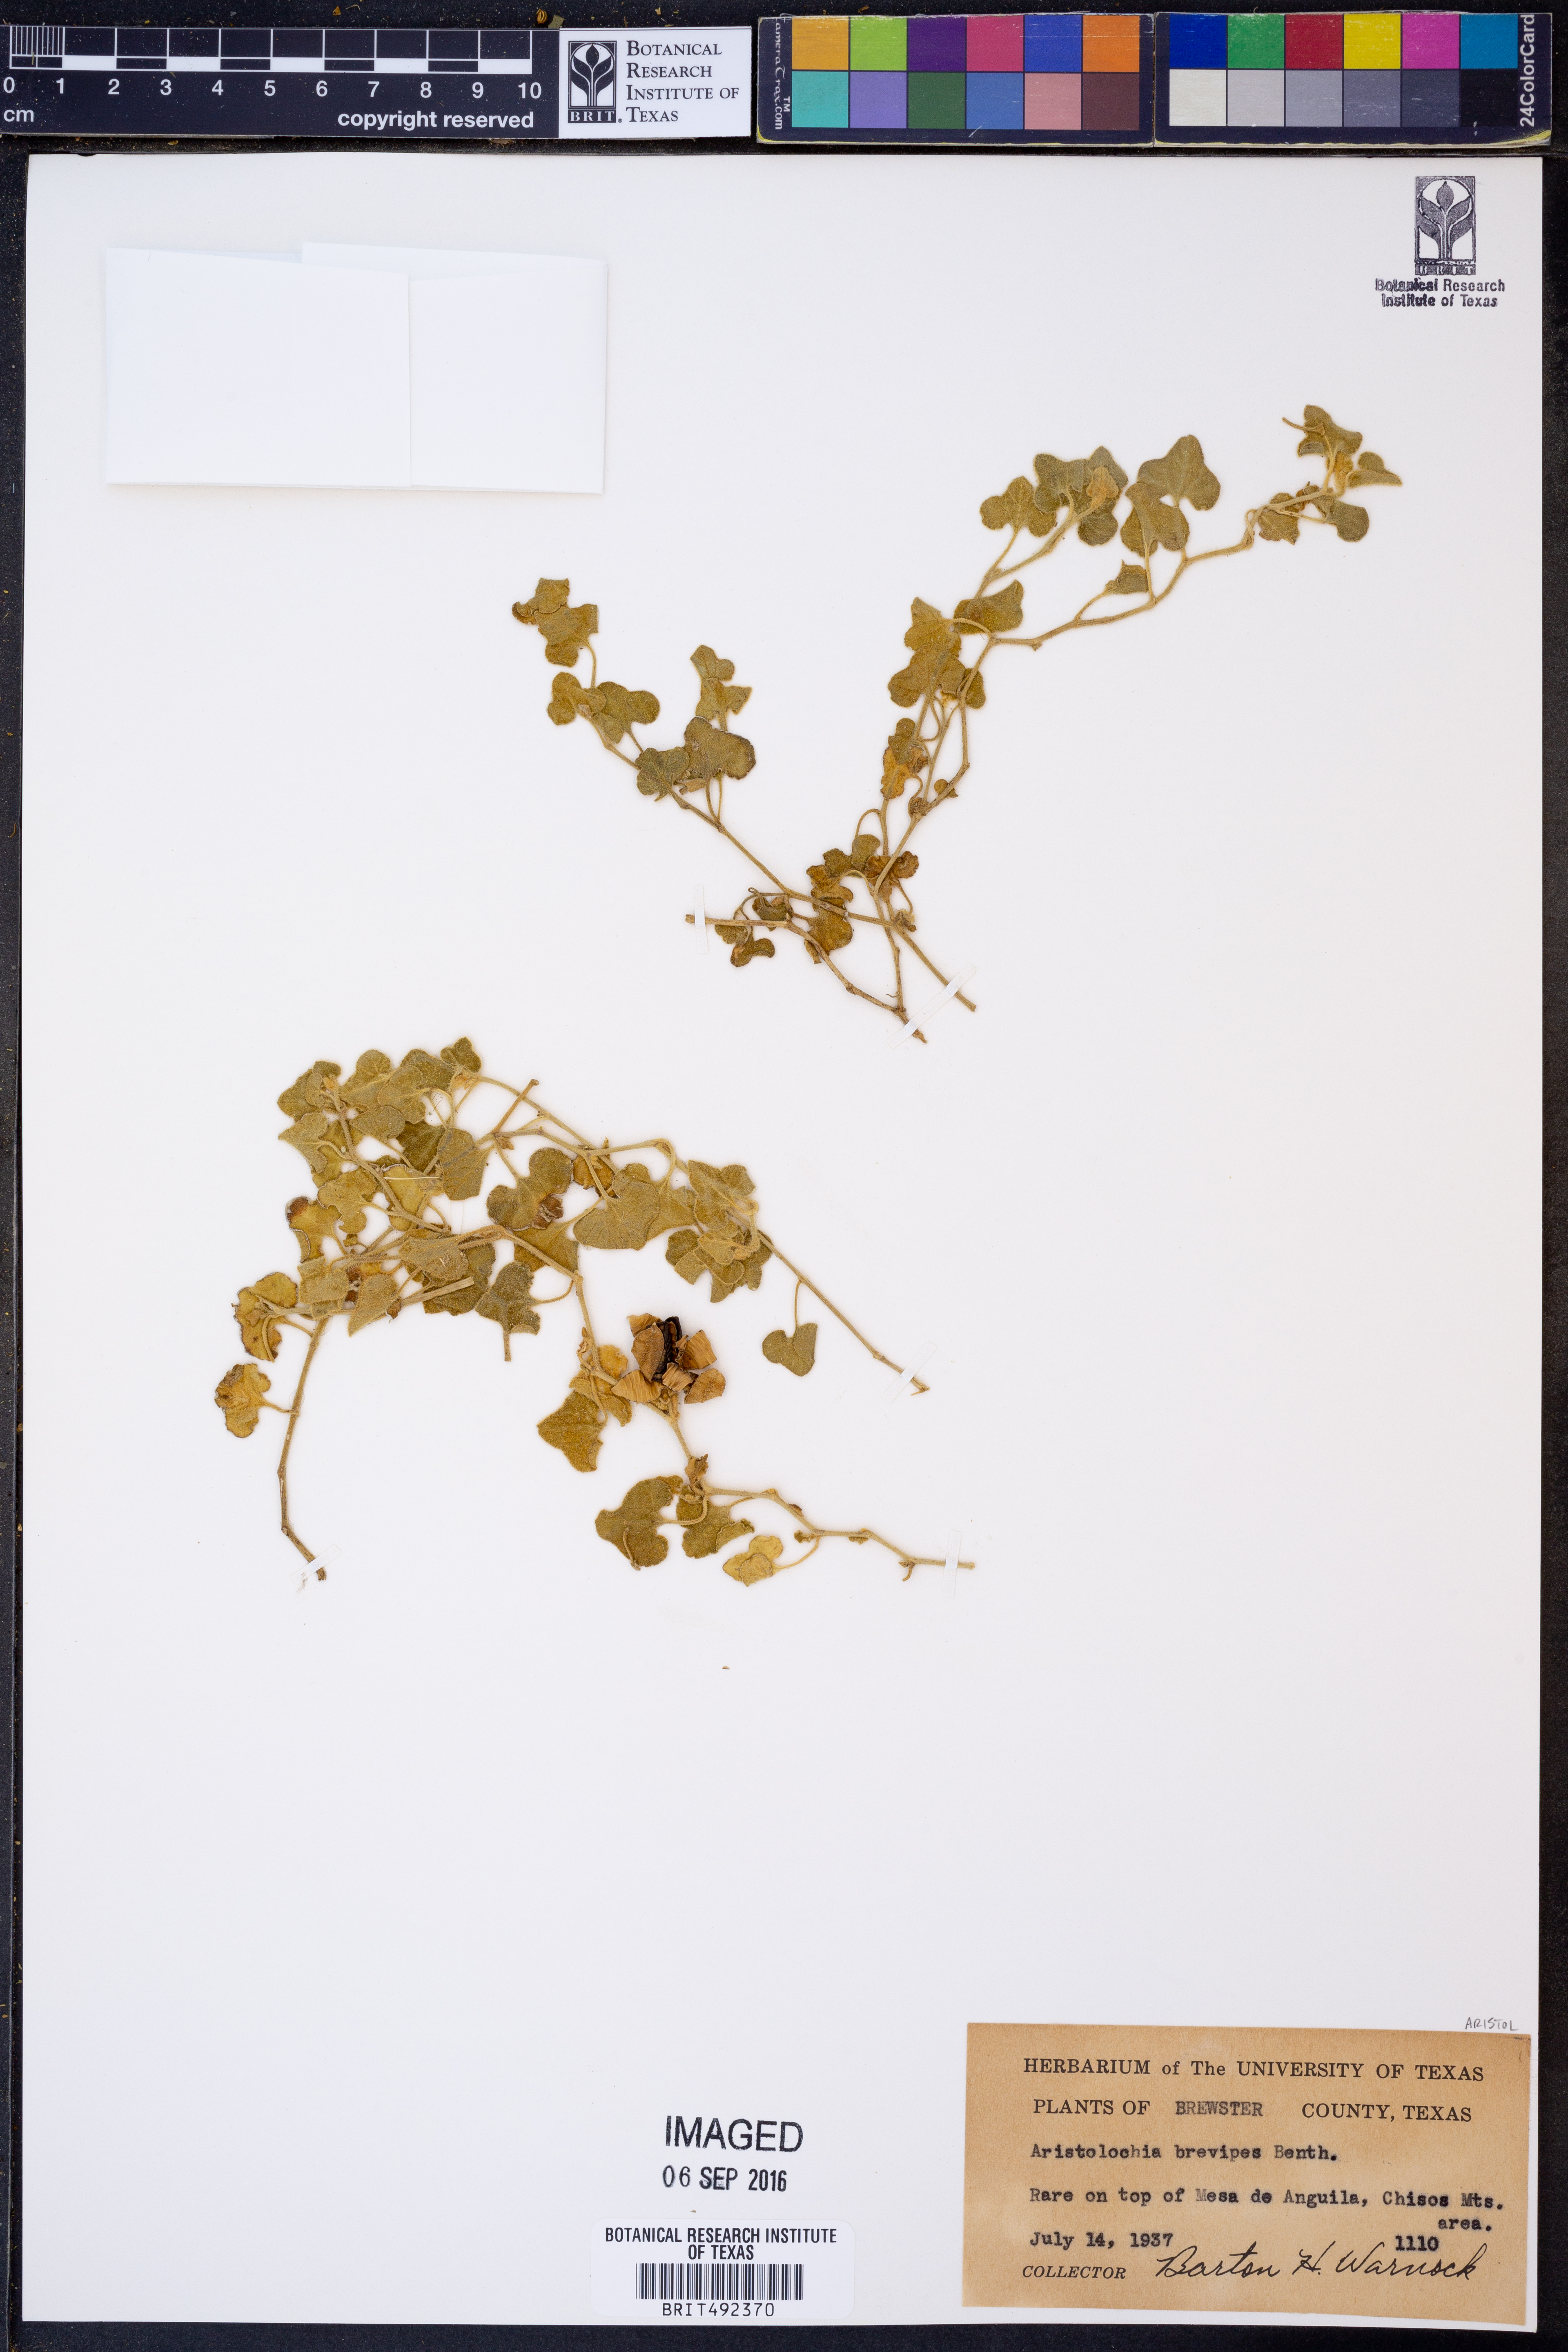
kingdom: Plantae
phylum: Tracheophyta
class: Magnoliopsida
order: Piperales
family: Aristolochiaceae
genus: Aristolochia
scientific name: Aristolochia brevipes
